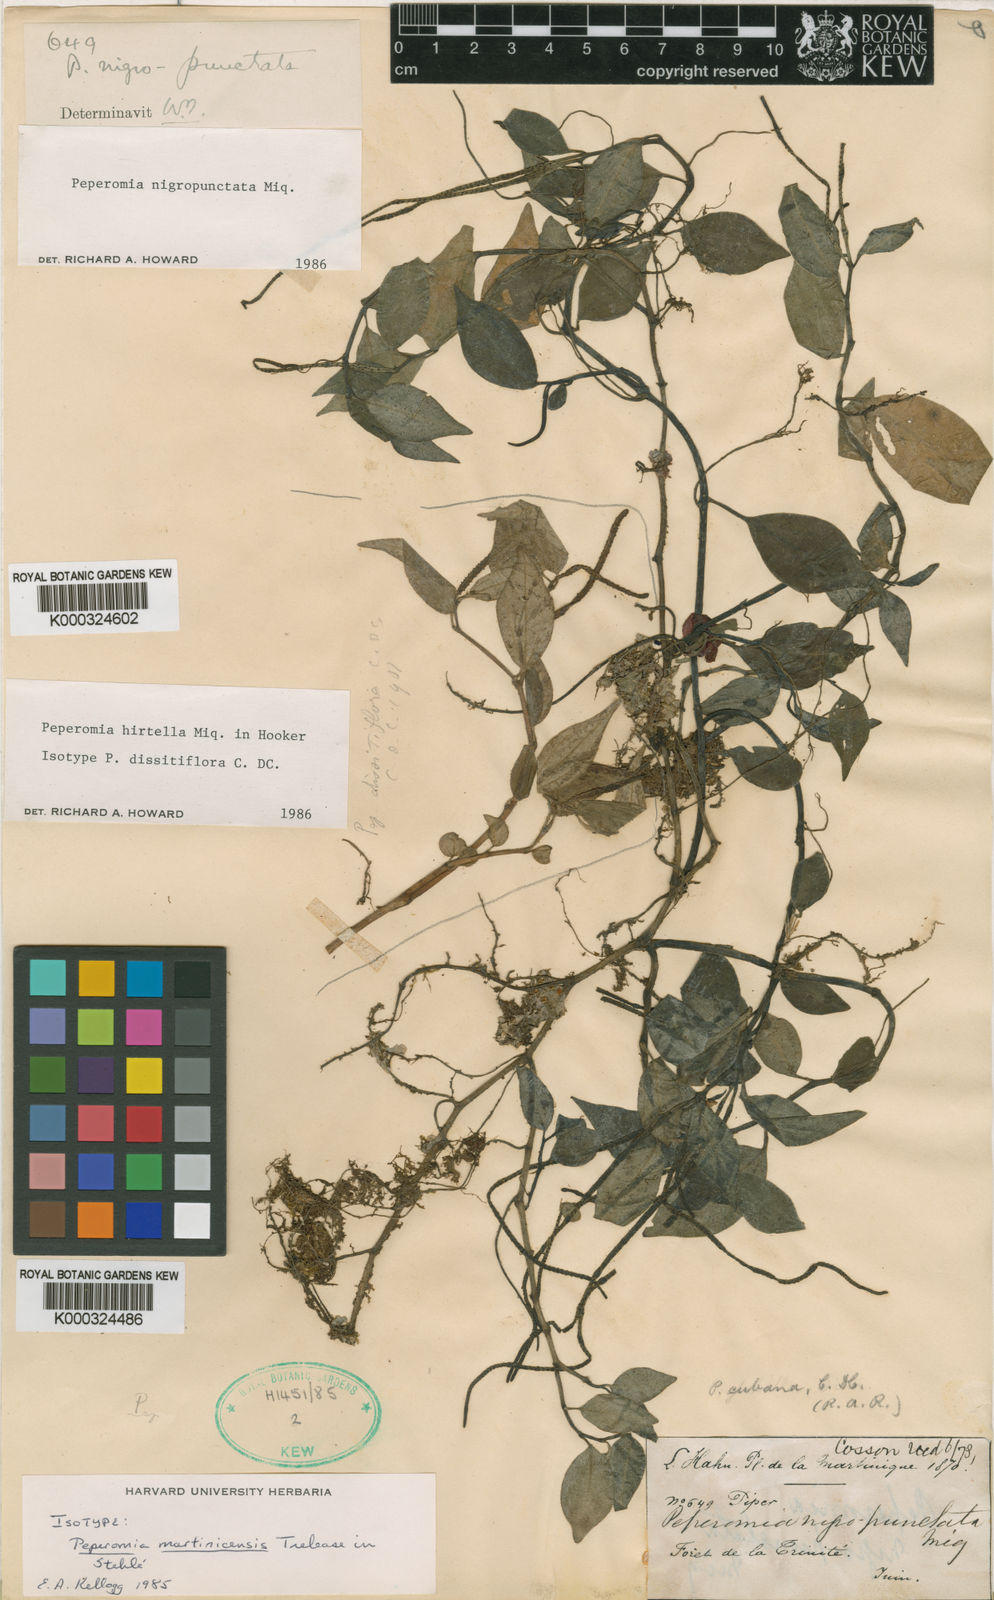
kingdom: Plantae
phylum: Tracheophyta
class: Magnoliopsida
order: Piperales
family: Piperaceae
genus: Peperomia
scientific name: Peperomia glabella
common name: Cypress peperomia
